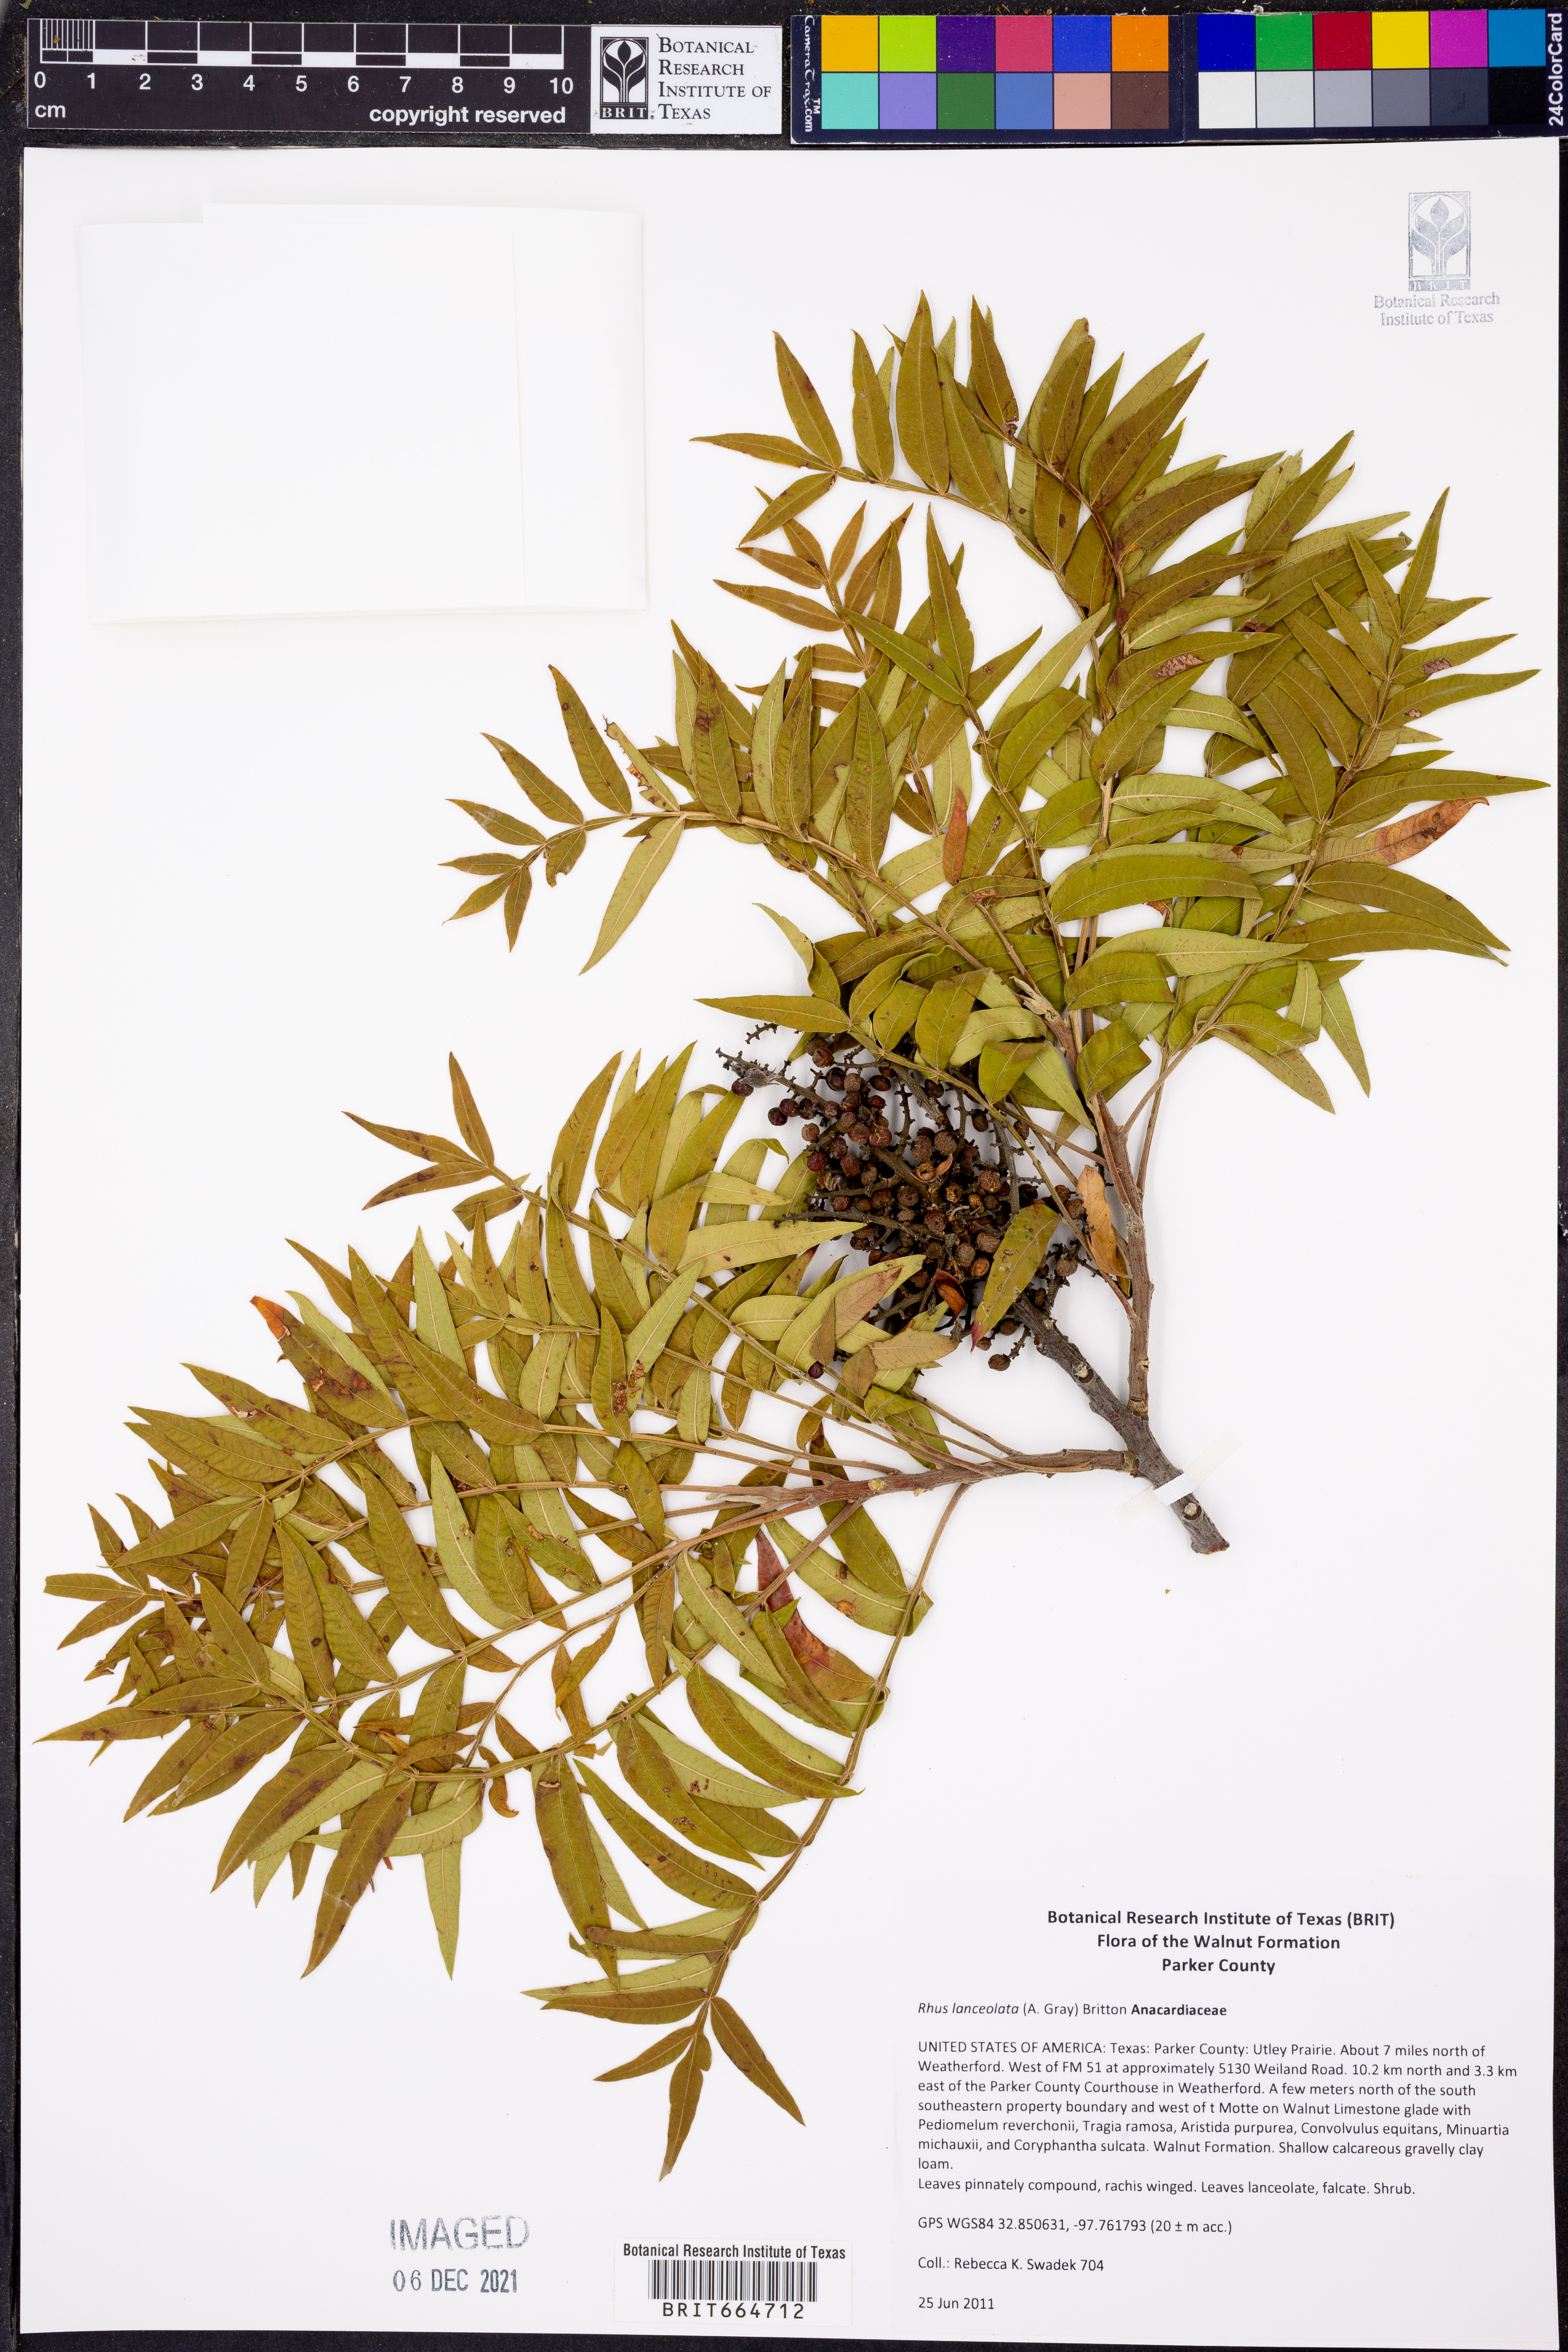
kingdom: Plantae
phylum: Tracheophyta
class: Magnoliopsida
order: Sapindales
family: Anacardiaceae
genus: Rhus
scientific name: Rhus lanceolata
